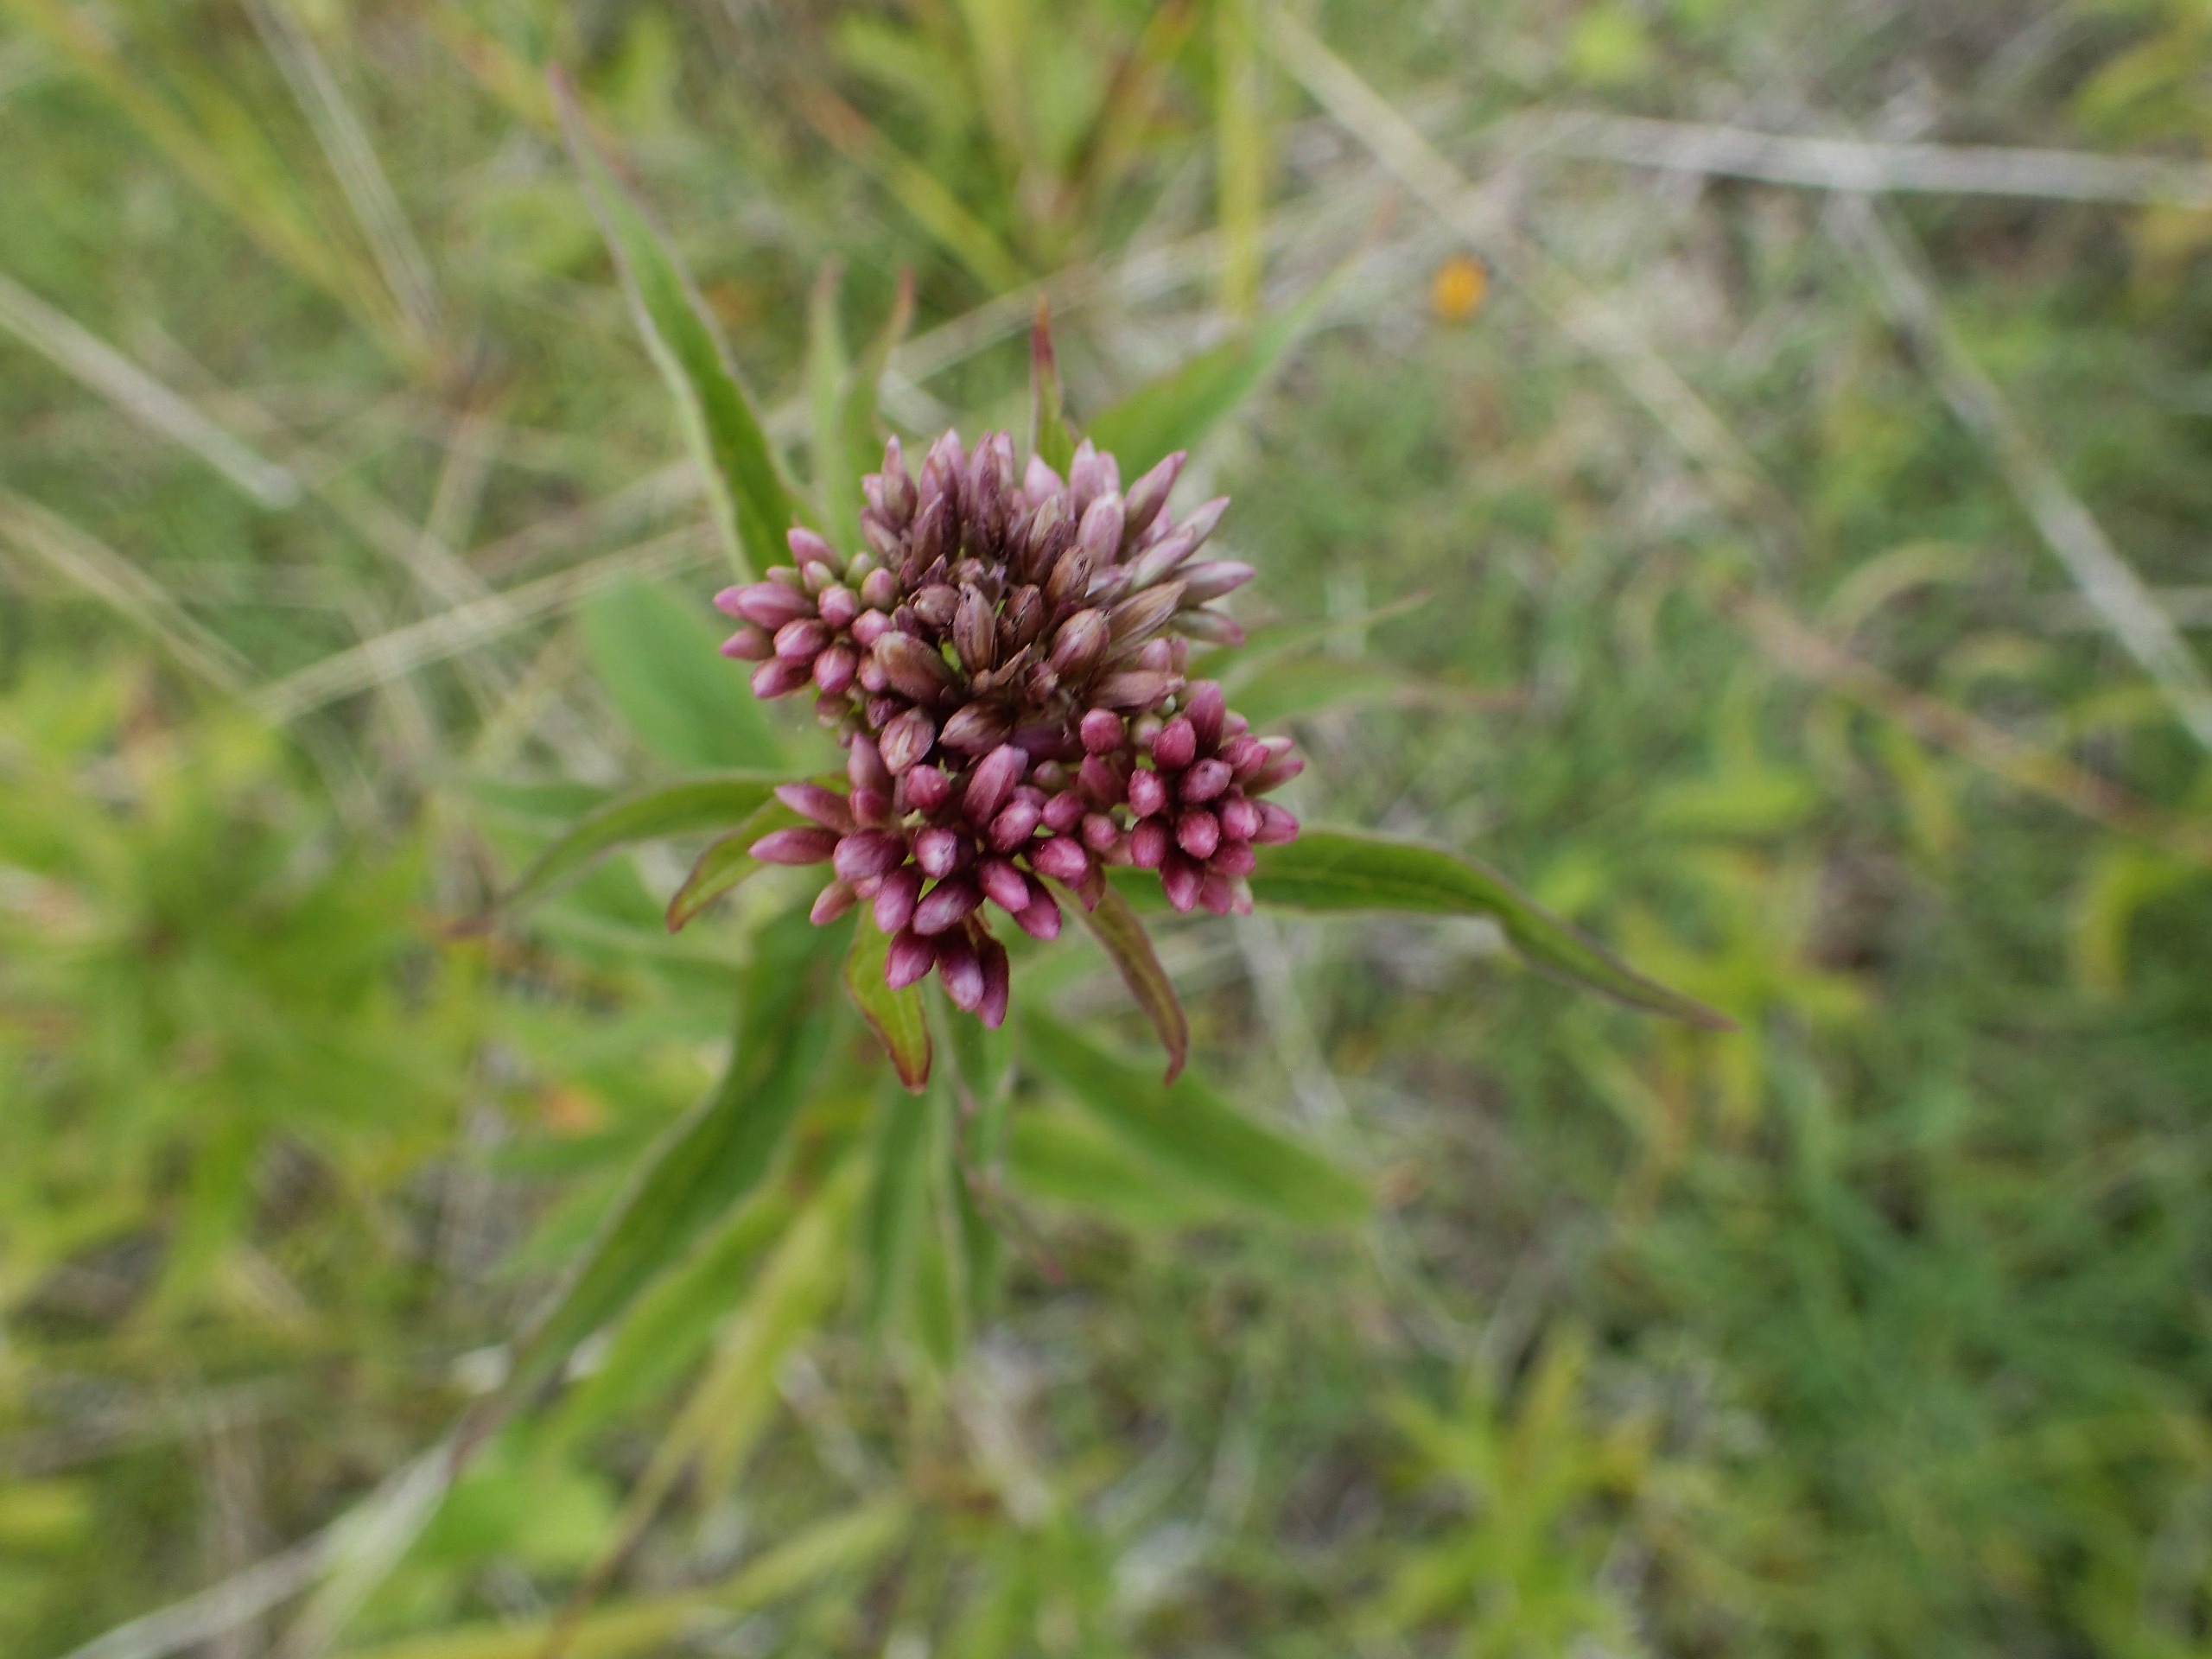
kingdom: Plantae
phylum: Tracheophyta
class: Magnoliopsida
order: Asterales
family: Asteraceae
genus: Eupatorium
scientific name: Eupatorium cannabinum
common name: Hjortetrøst
